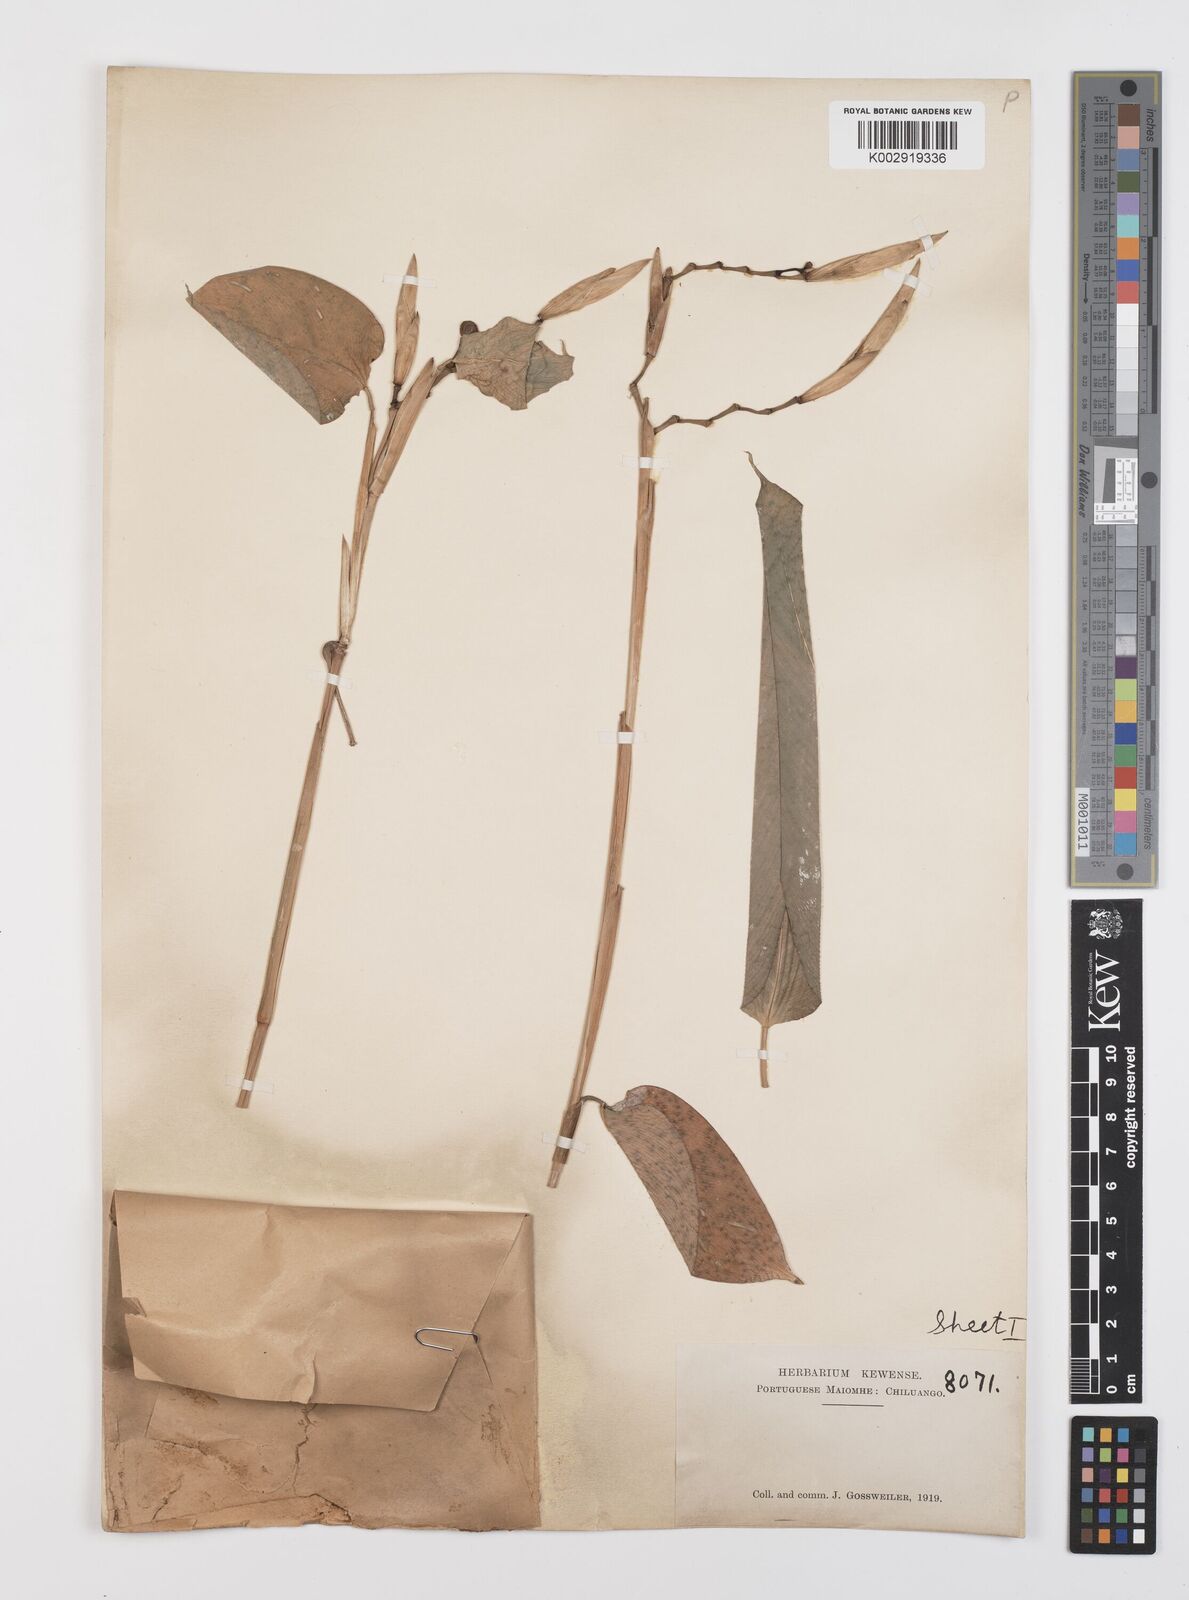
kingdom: Plantae
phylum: Tracheophyta
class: Liliopsida
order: Zingiberales
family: Marantaceae
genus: Hypselodelphys
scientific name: Hypselodelphys violacea
